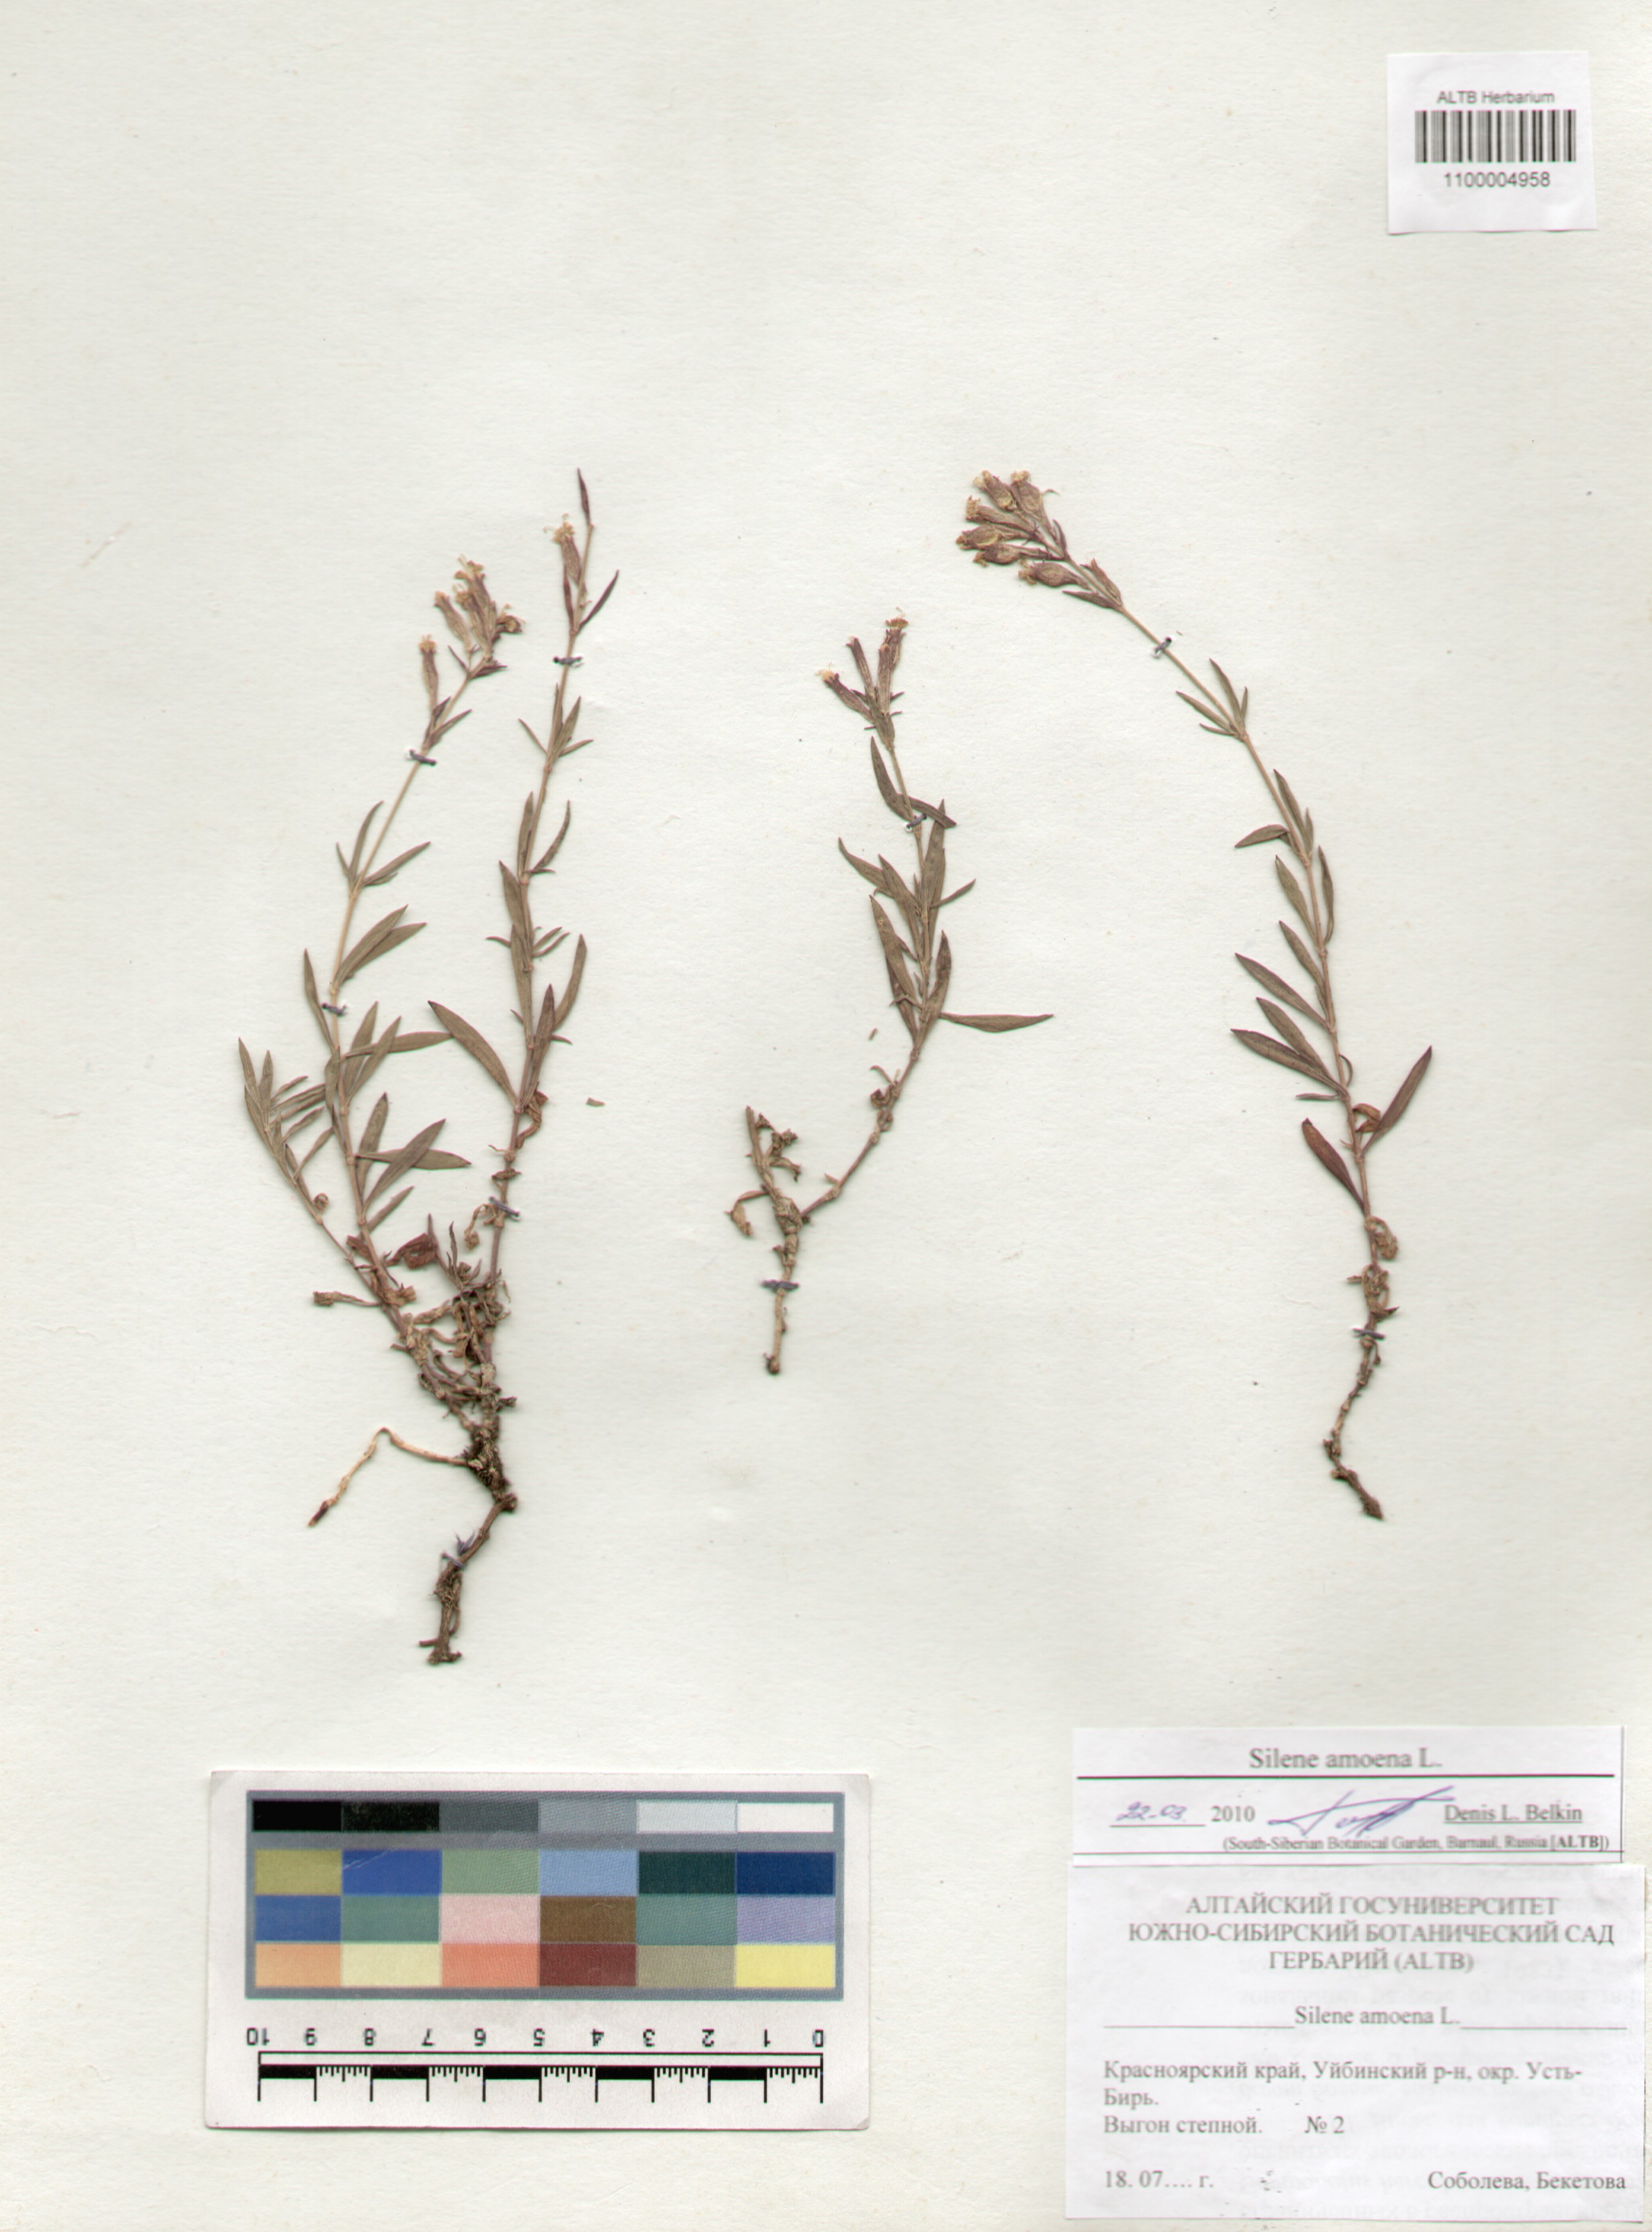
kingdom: Plantae
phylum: Tracheophyta
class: Magnoliopsida
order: Caryophyllales
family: Caryophyllaceae
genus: Silene
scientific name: Silene amoena
